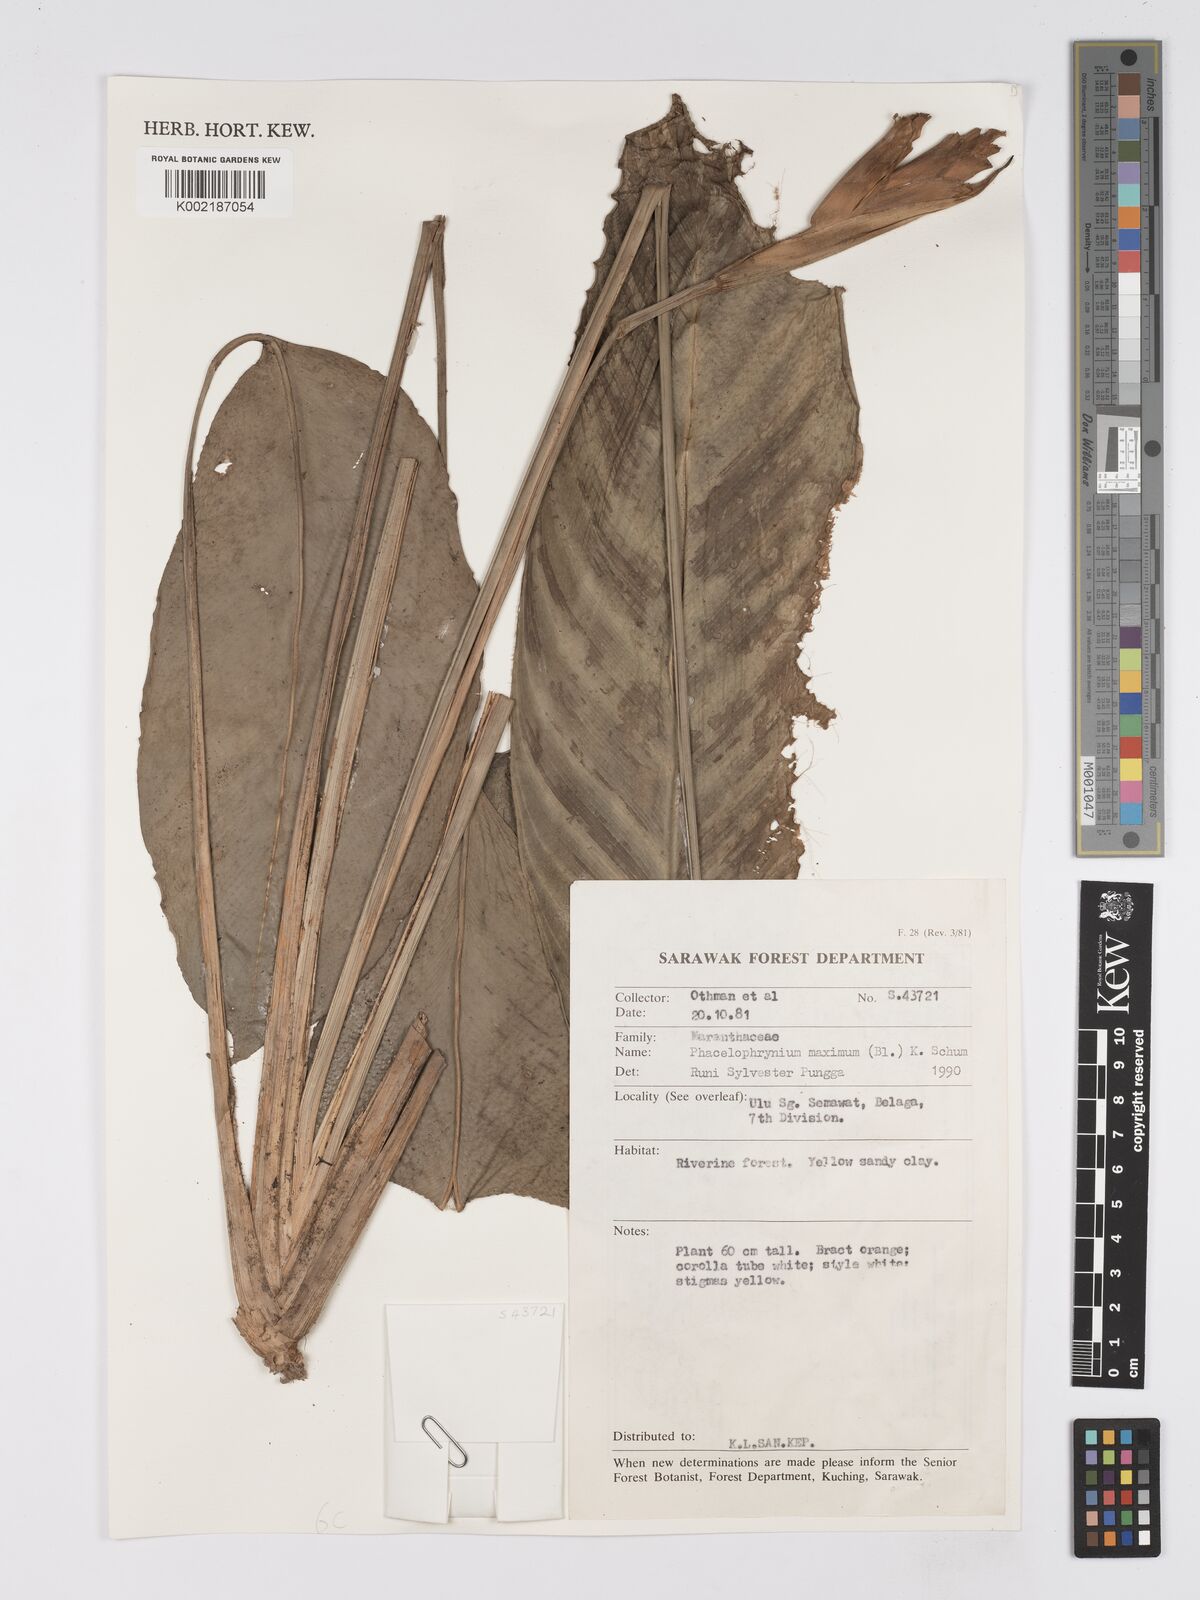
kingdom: Plantae
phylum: Tracheophyta
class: Liliopsida
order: Zingiberales
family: Marantaceae
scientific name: Marantaceae
